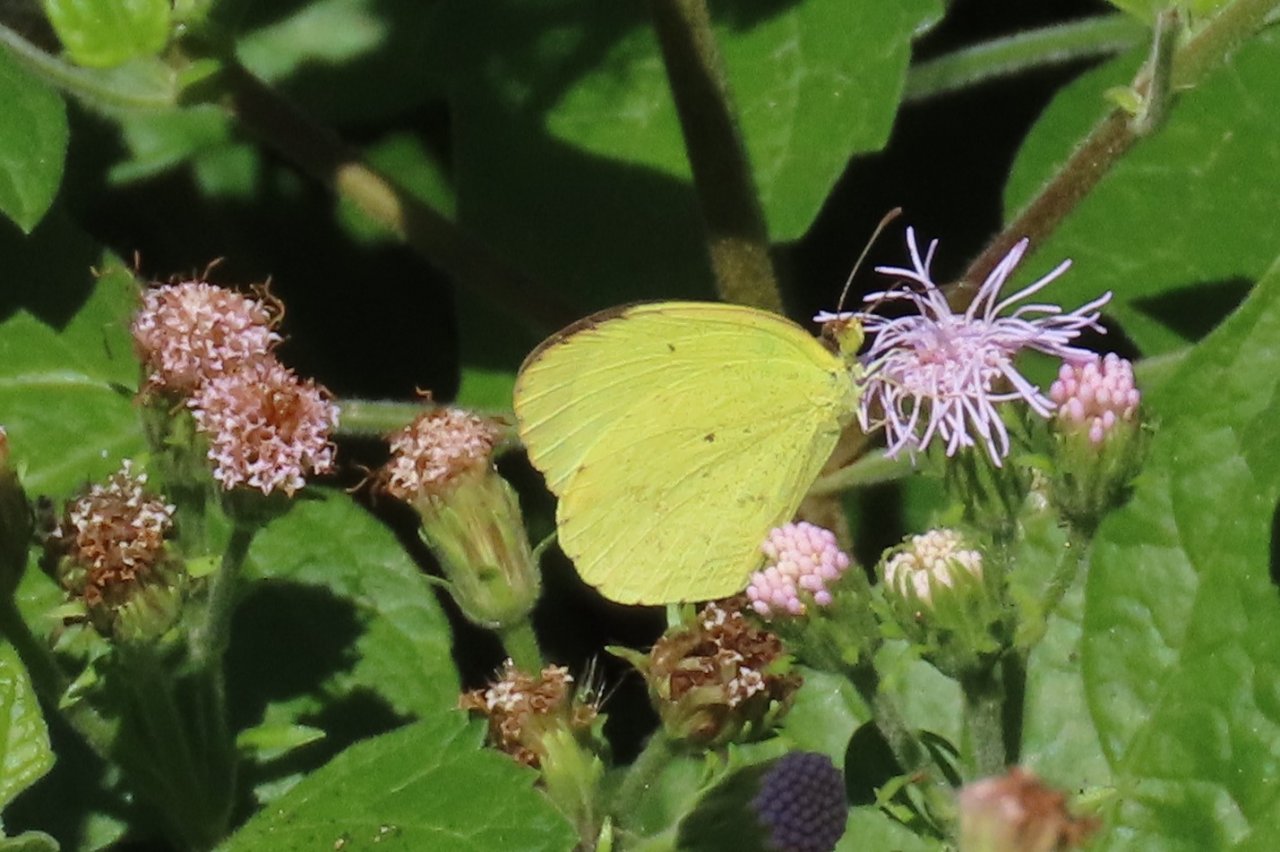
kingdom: Animalia
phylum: Arthropoda
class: Insecta
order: Lepidoptera
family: Pieridae
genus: Pyrisitia
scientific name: Pyrisitia nise
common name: Mimosa Yellow
